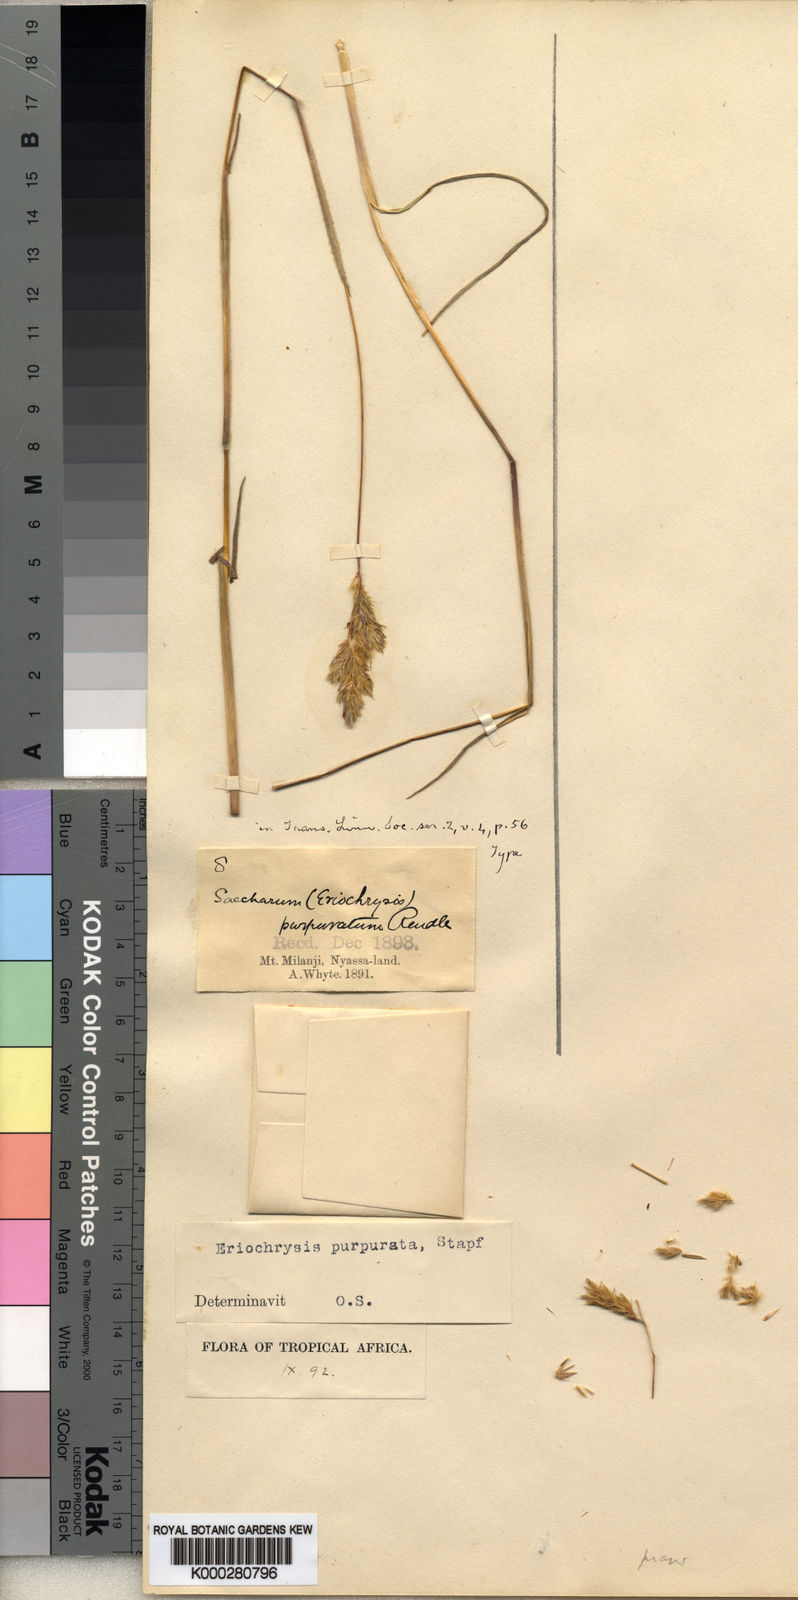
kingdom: Plantae
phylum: Tracheophyta
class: Liliopsida
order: Poales
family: Poaceae
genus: Eriochrysis
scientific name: Eriochrysis purpurata
